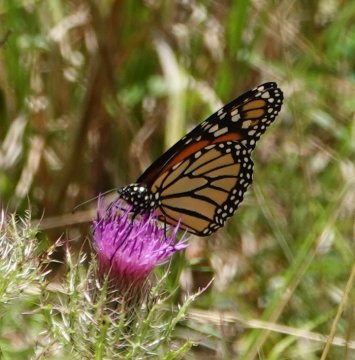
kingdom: Animalia
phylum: Arthropoda
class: Insecta
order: Lepidoptera
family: Nymphalidae
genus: Danaus
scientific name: Danaus plexippus
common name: Monarch
